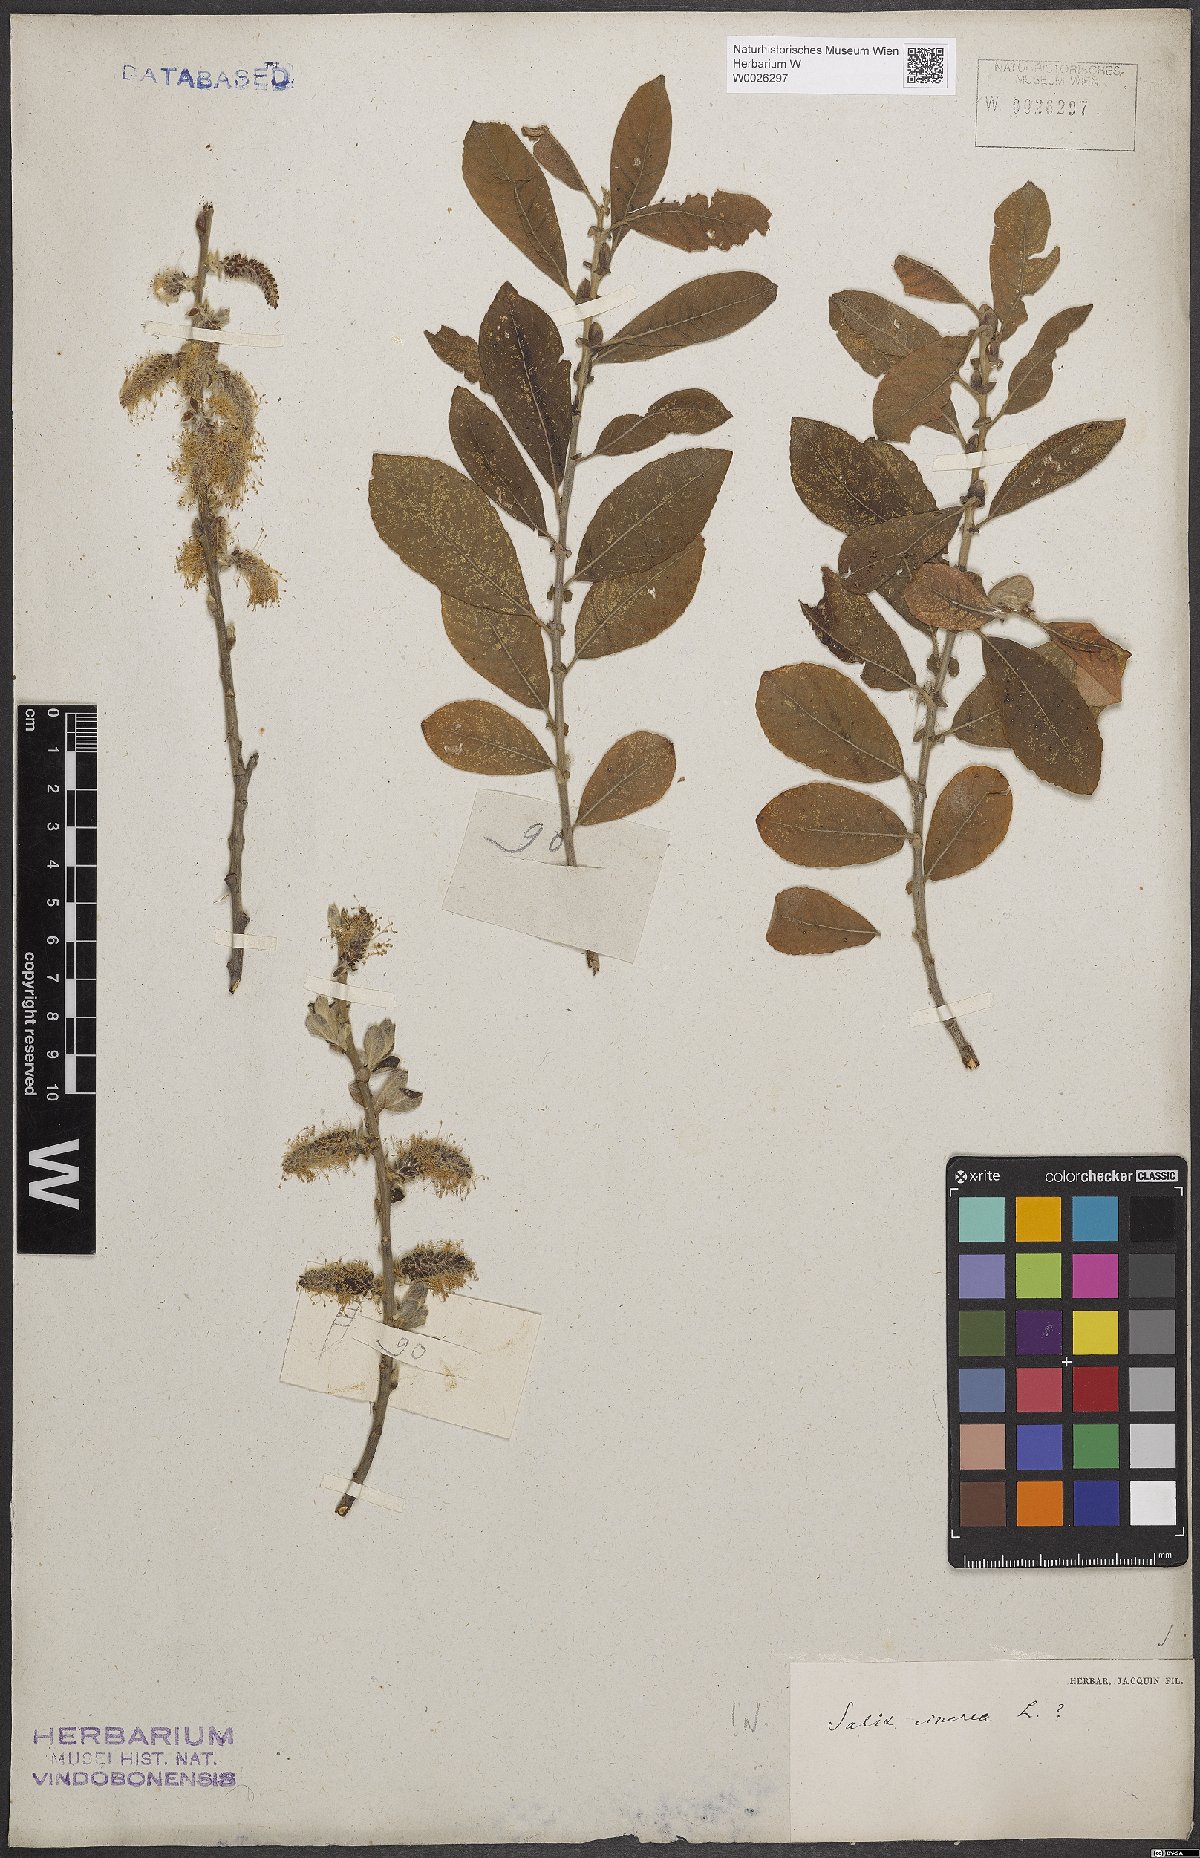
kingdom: Plantae
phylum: Tracheophyta
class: Magnoliopsida
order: Malpighiales
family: Salicaceae
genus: Salix
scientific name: Salix cinerea
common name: Common sallow
